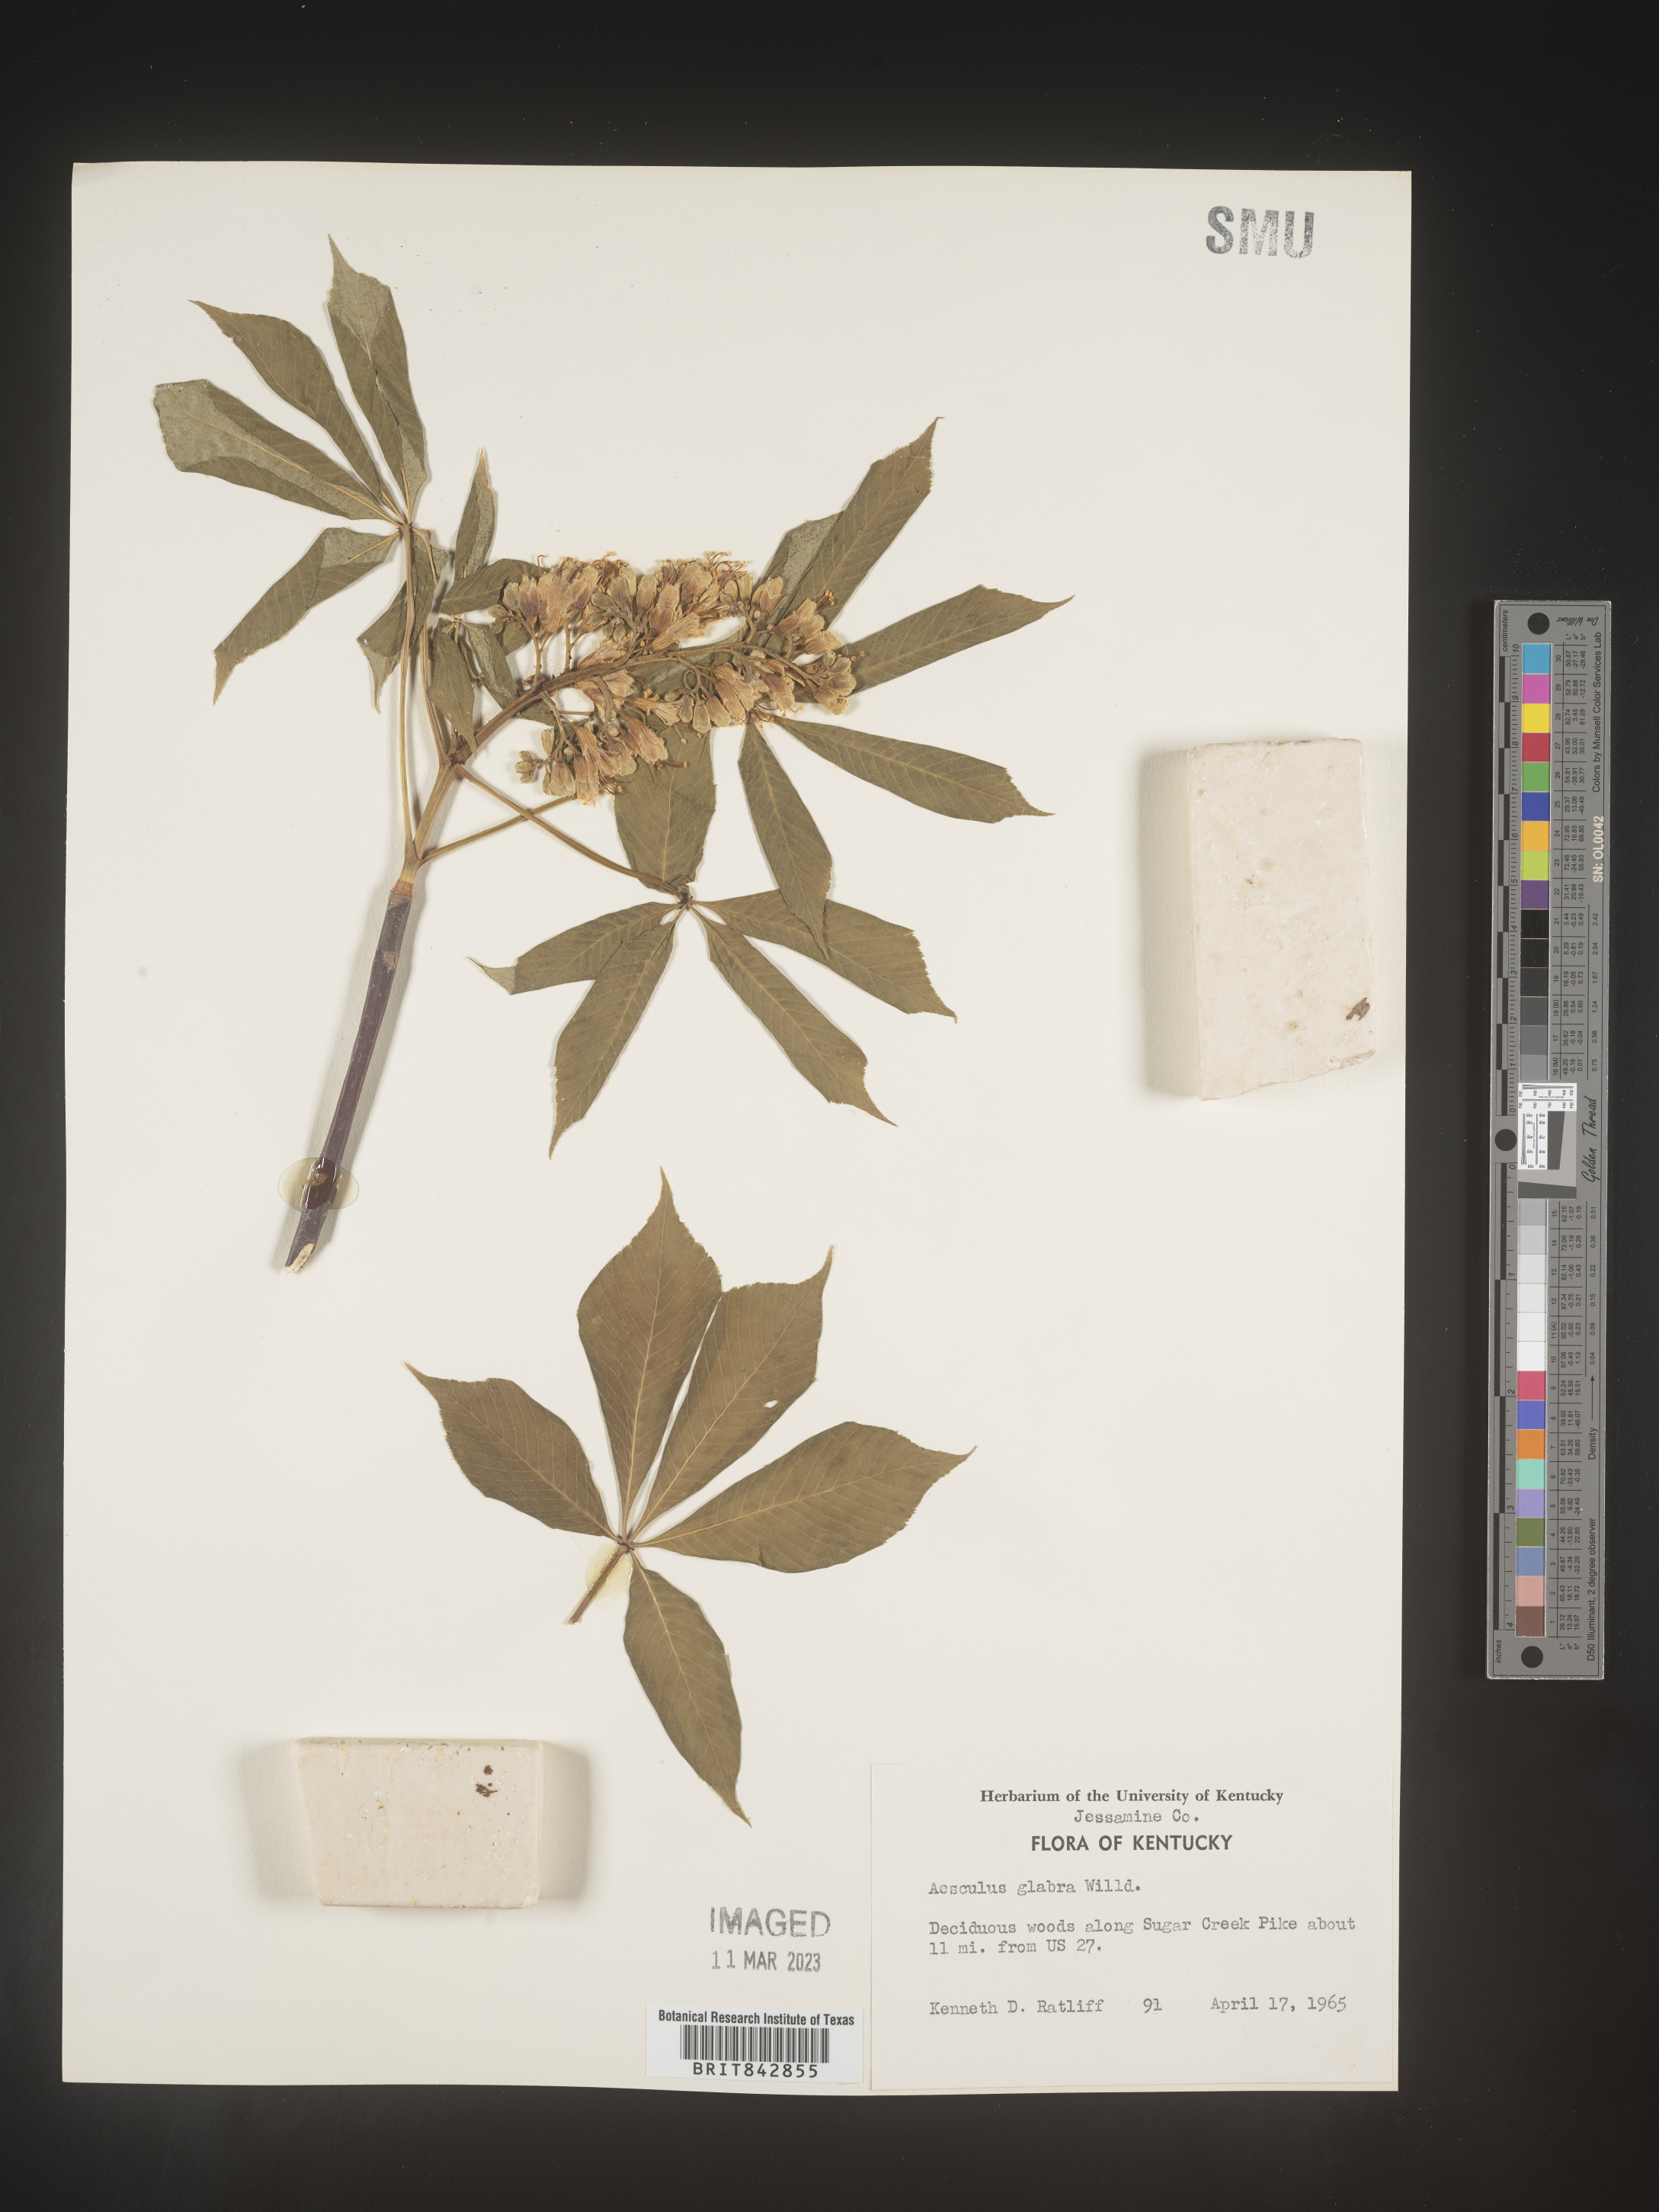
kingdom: Plantae
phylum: Tracheophyta
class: Magnoliopsida
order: Sapindales
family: Sapindaceae
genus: Aesculus
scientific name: Aesculus glabra
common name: Ohio buckeye
